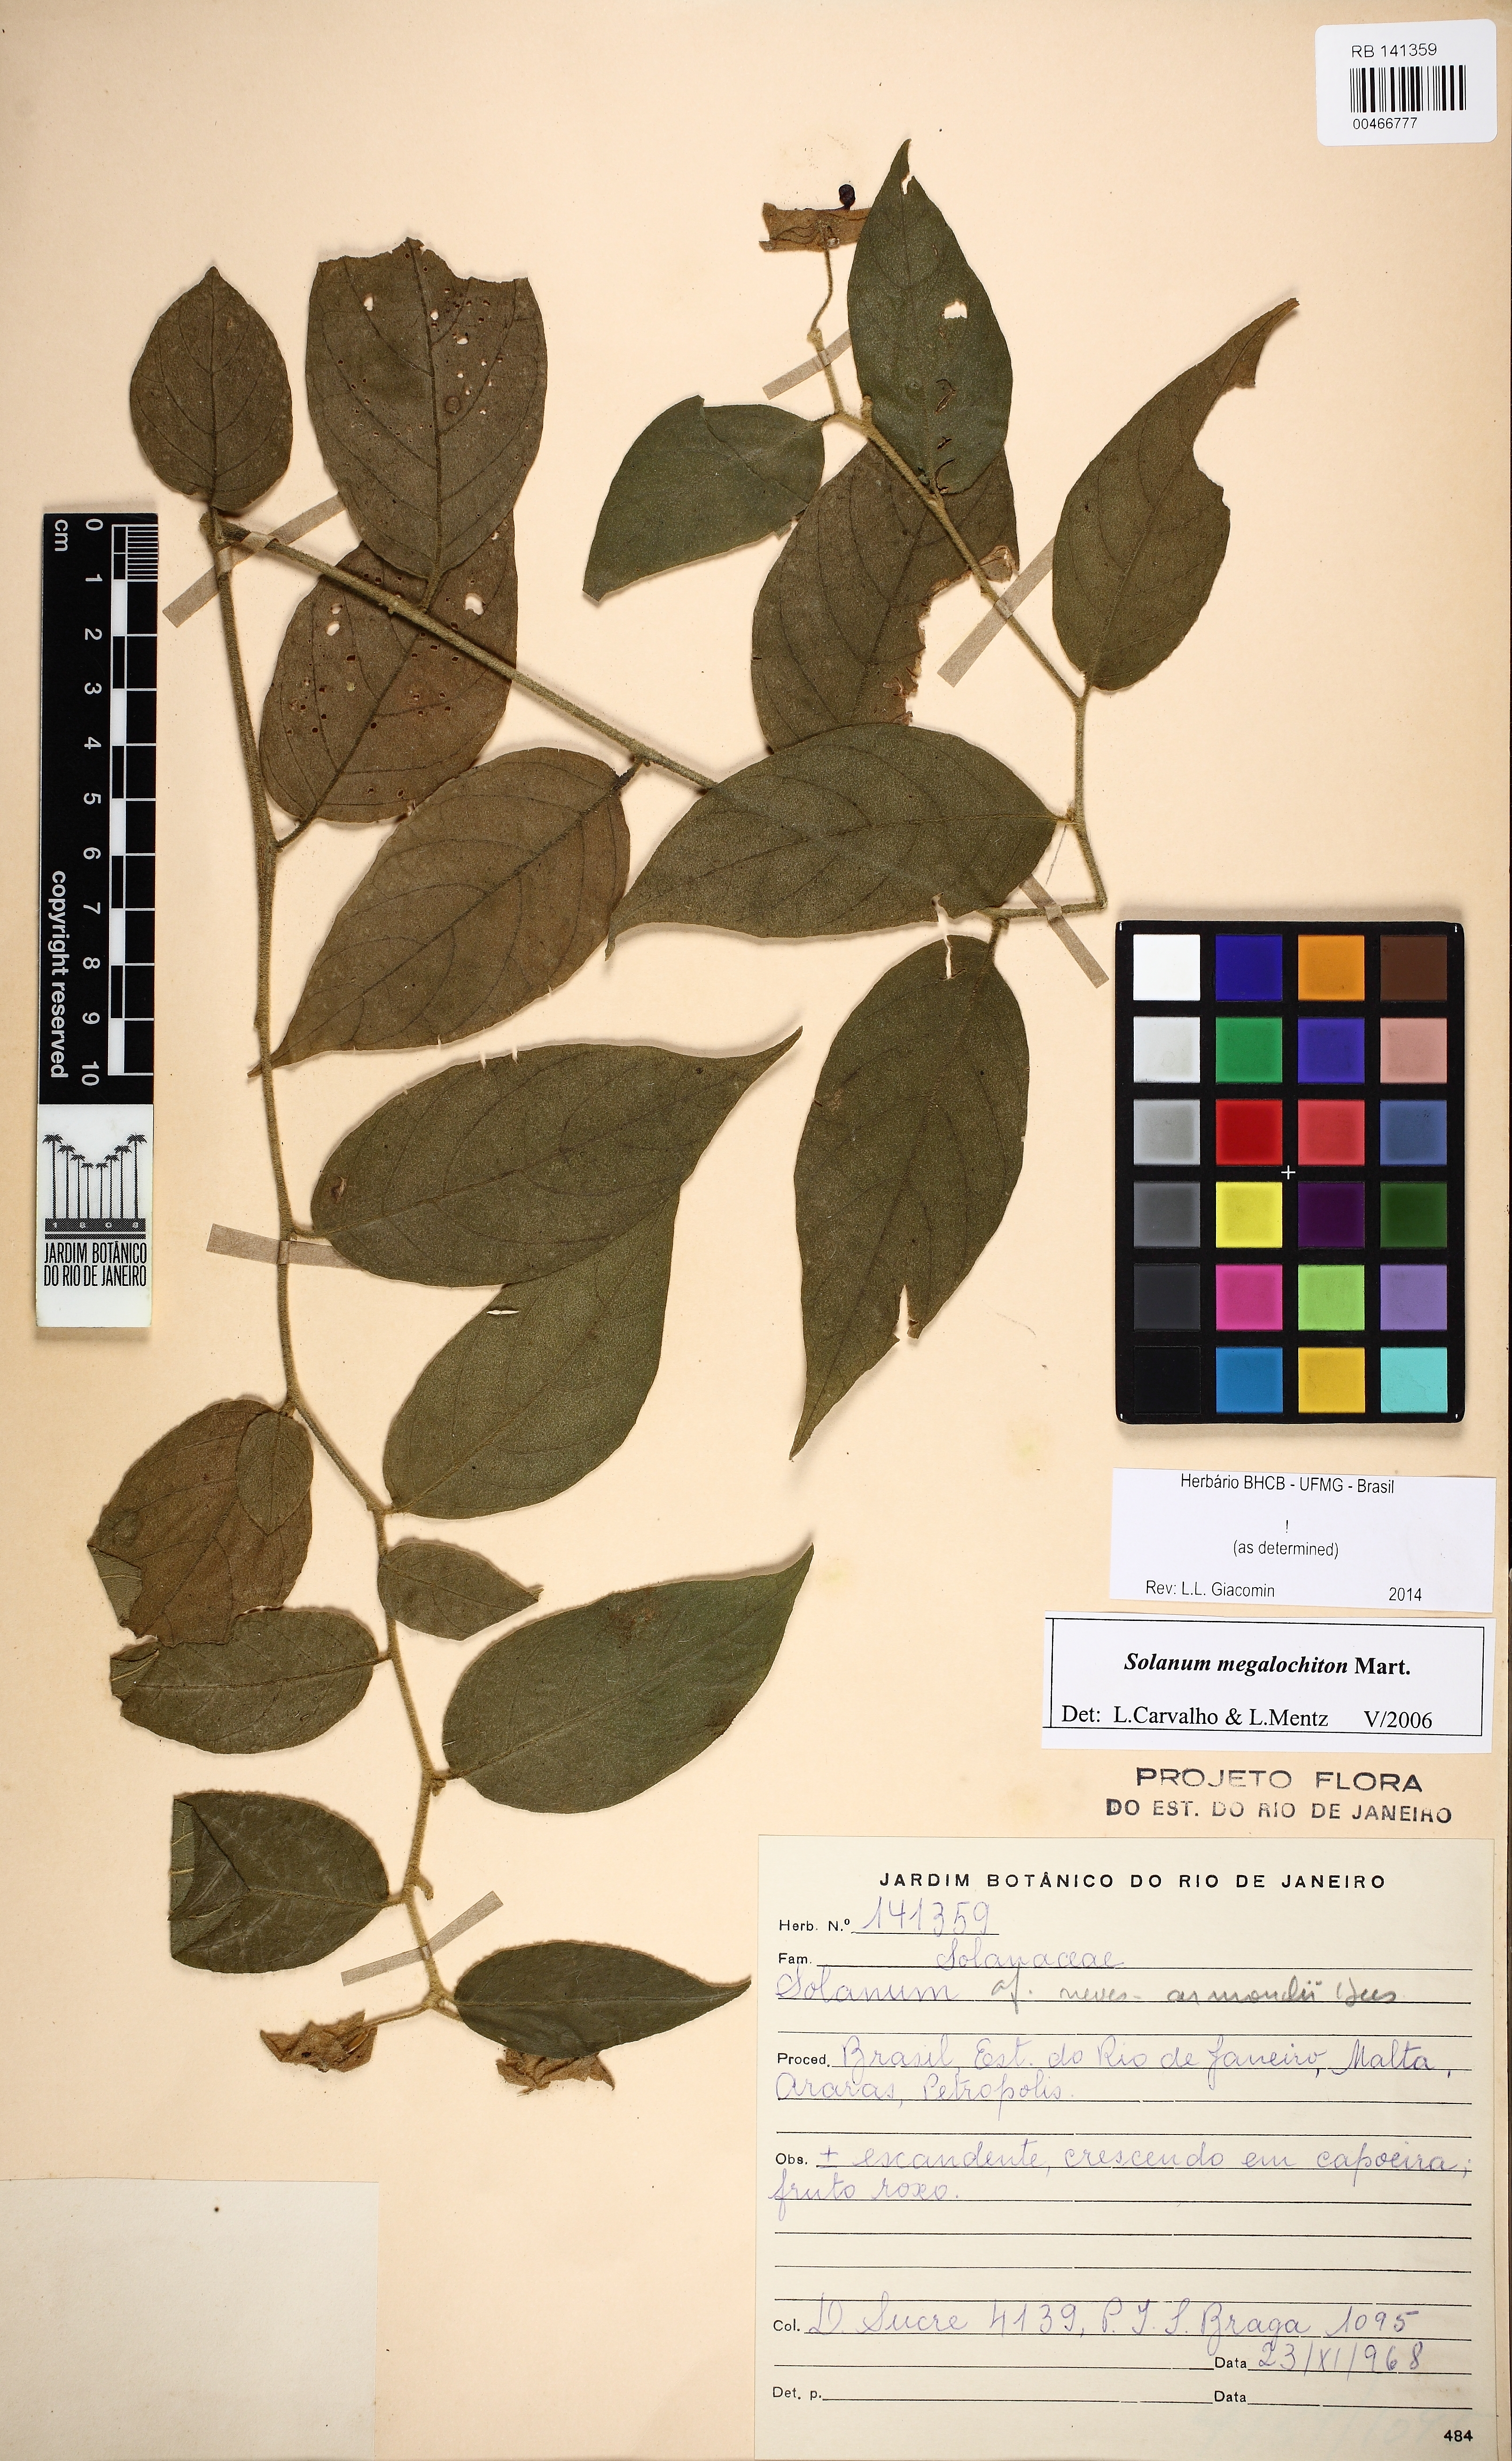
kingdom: Plantae
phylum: Tracheophyta
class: Magnoliopsida
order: Solanales
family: Solanaceae
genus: Solanum
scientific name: Solanum megalochiton
